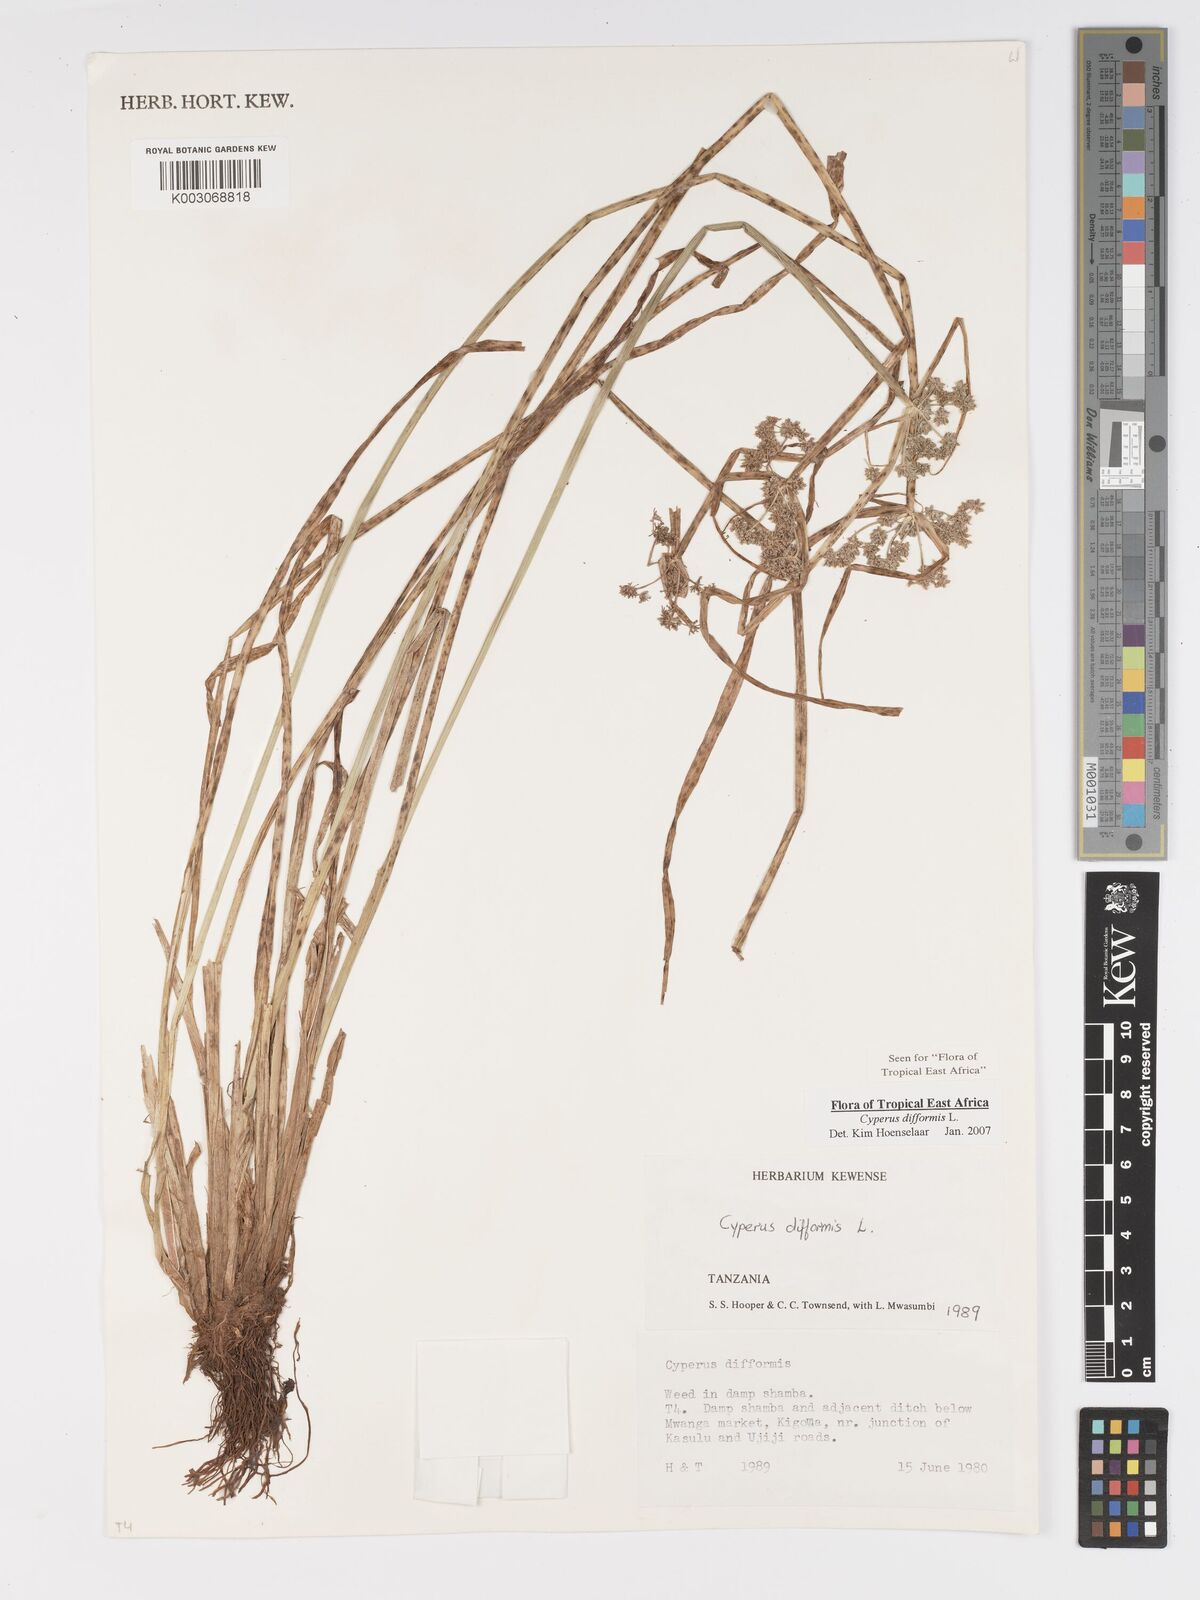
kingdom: Plantae
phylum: Tracheophyta
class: Liliopsida
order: Poales
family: Cyperaceae
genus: Cyperus
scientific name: Cyperus difformis
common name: Variable flatsedge
